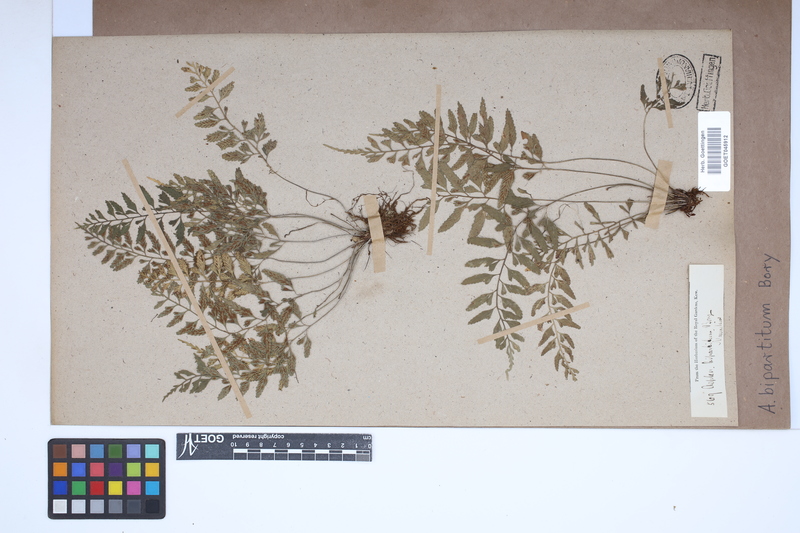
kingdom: Plantae
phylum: Tracheophyta
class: Polypodiopsida
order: Polypodiales
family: Aspleniaceae
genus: Asplenium
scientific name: Asplenium bipartitum
